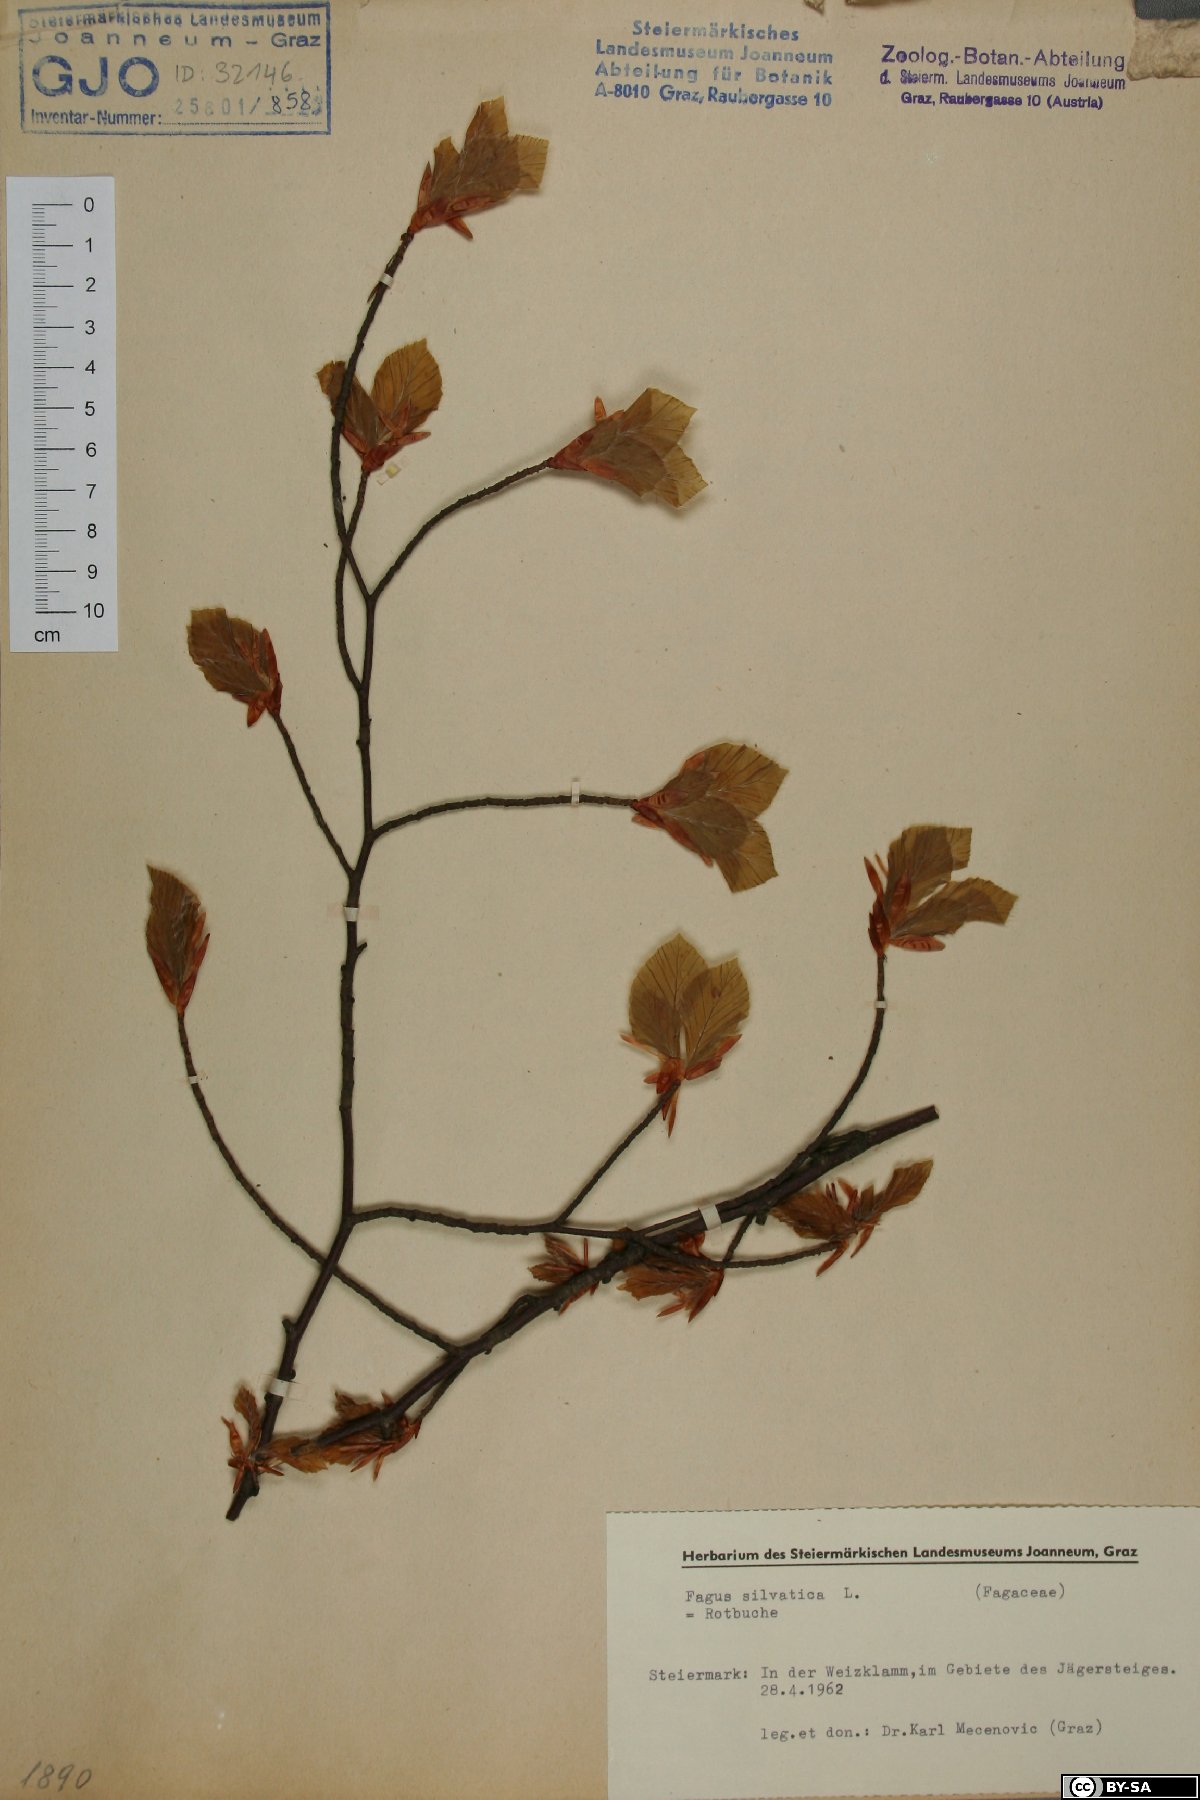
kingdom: Plantae
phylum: Tracheophyta
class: Magnoliopsida
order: Fagales
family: Fagaceae
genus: Fagus
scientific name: Fagus sylvatica
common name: Beech
